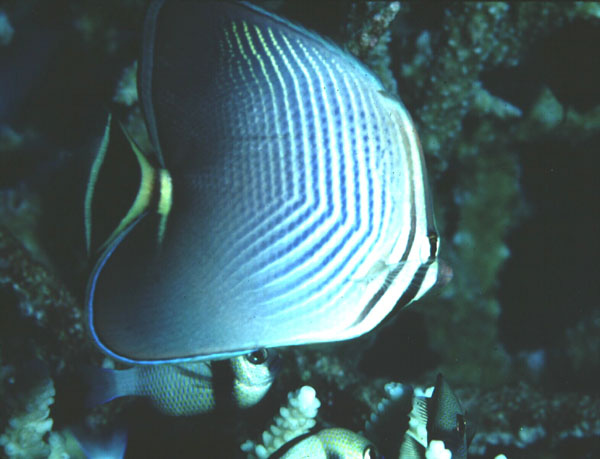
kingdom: Animalia
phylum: Chordata
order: Perciformes
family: Chaetodontidae
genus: Chaetodon
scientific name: Chaetodon triangulum
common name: Triangular butterflyfish
